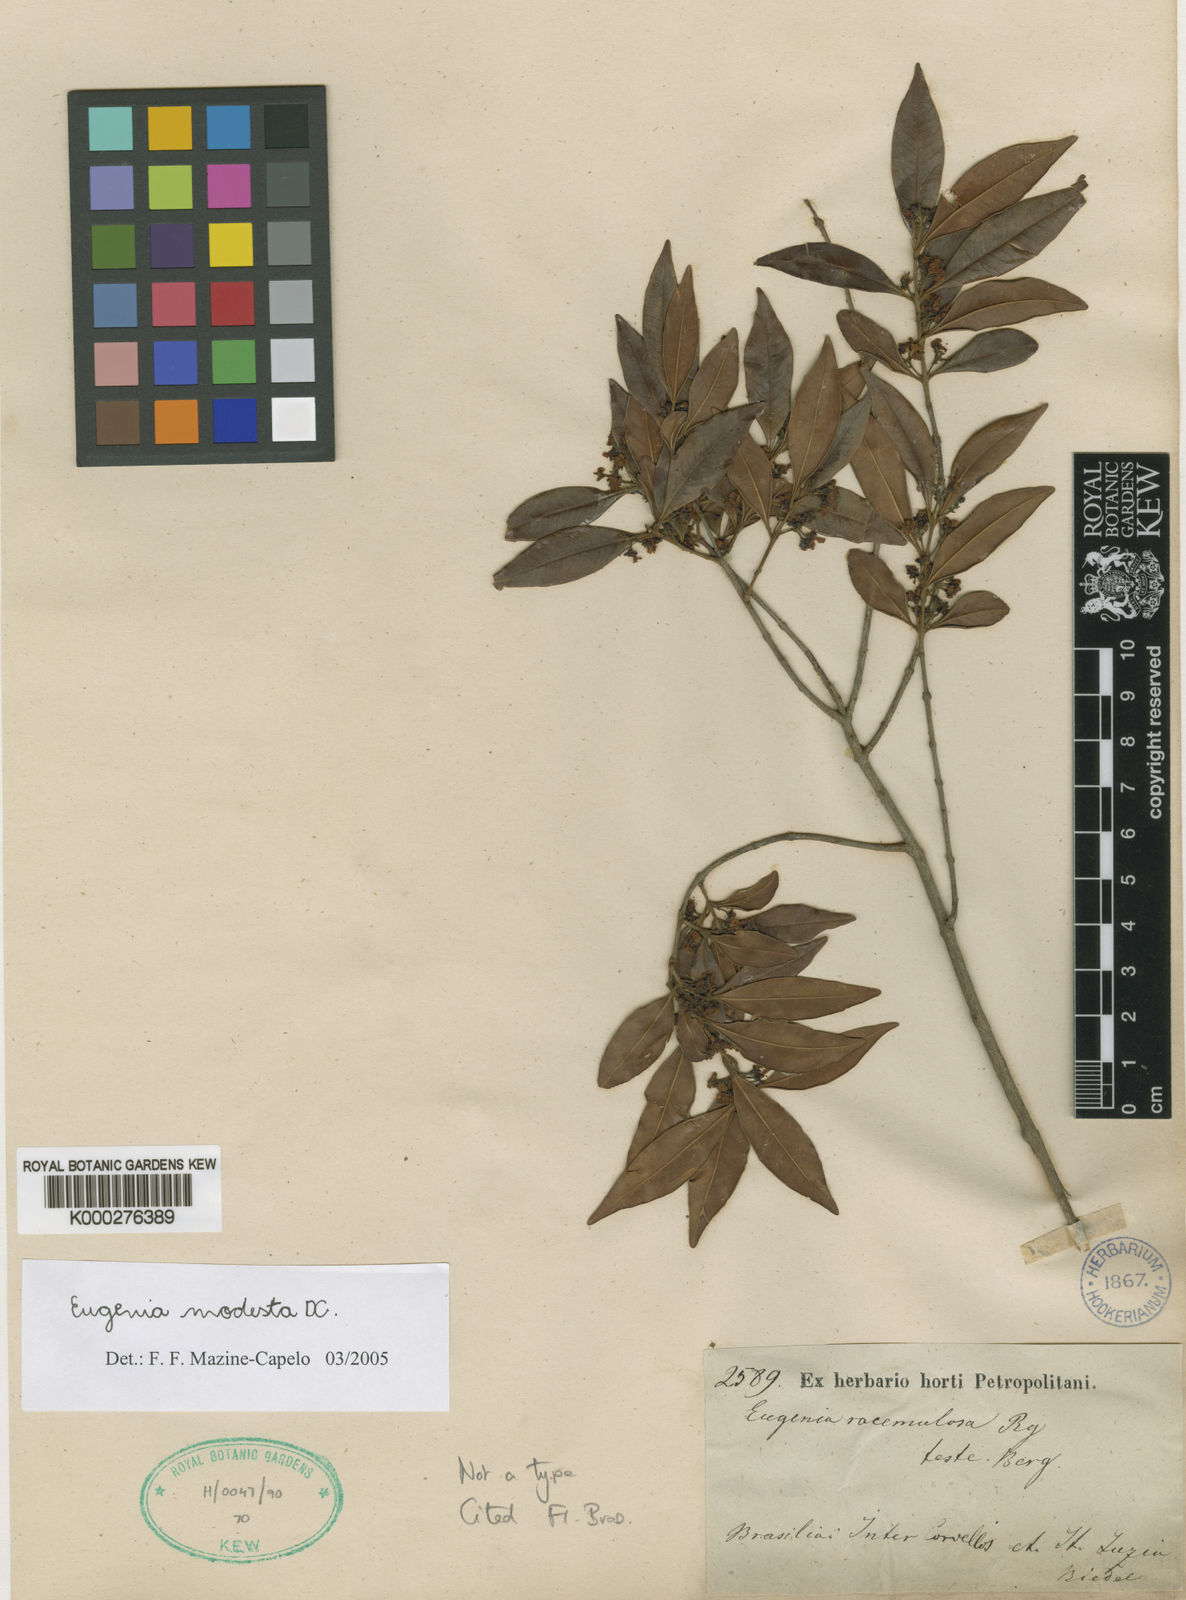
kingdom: Plantae
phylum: Tracheophyta
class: Magnoliopsida
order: Myrtales
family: Myrtaceae
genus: Eugenia
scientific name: Eugenia modesta
